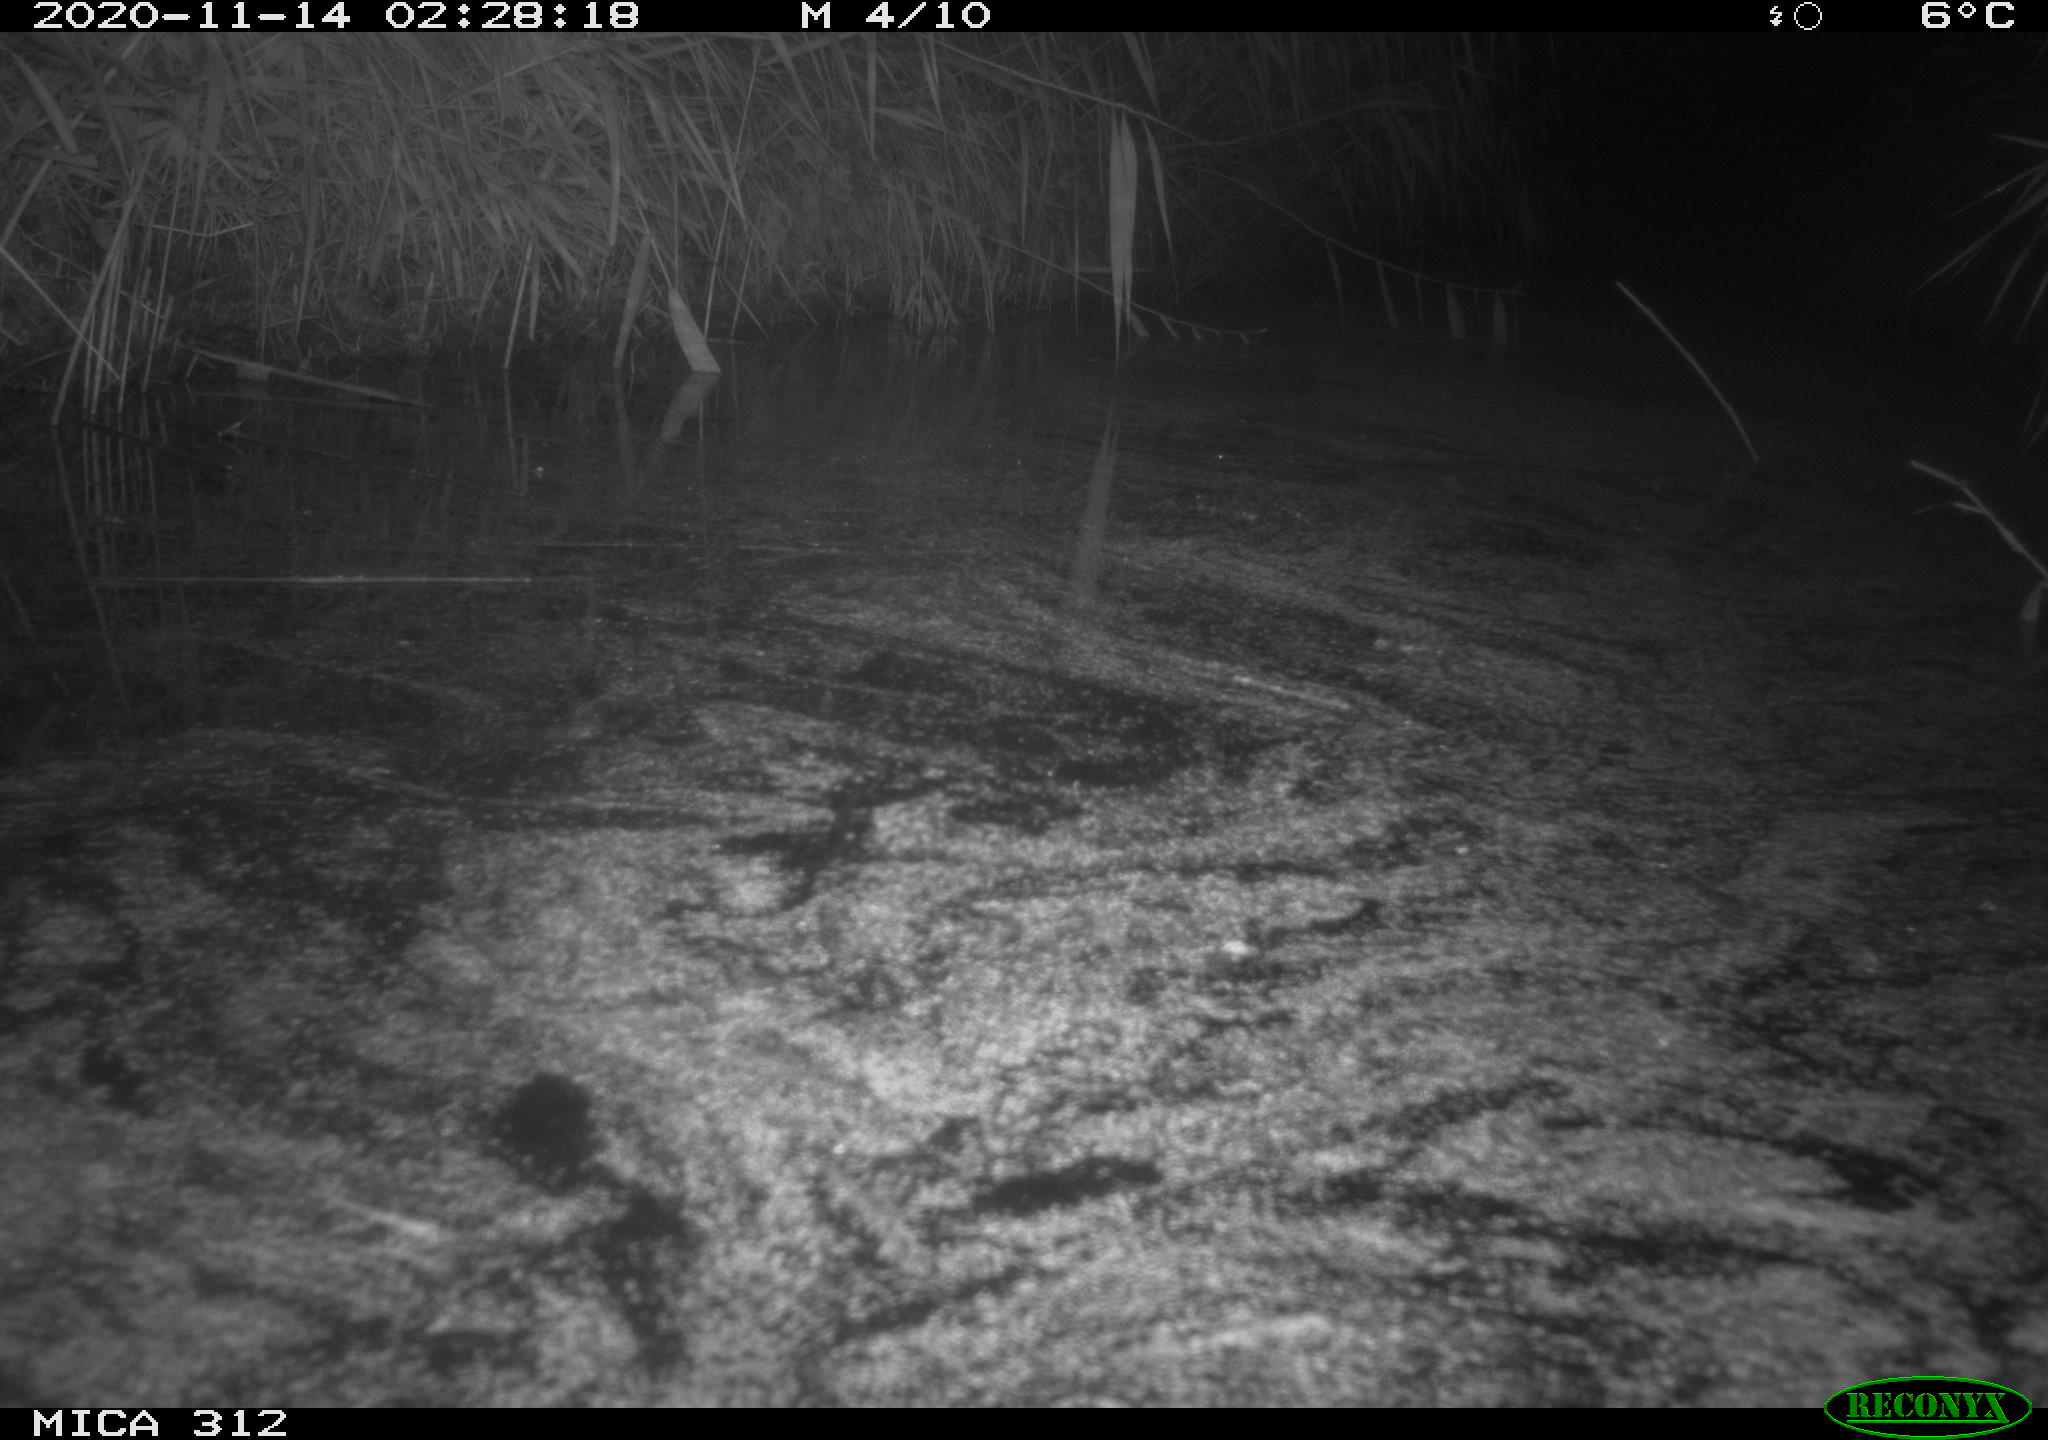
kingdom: Animalia
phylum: Chordata
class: Mammalia
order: Rodentia
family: Muridae
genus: Rattus
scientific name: Rattus norvegicus
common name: Brown rat
